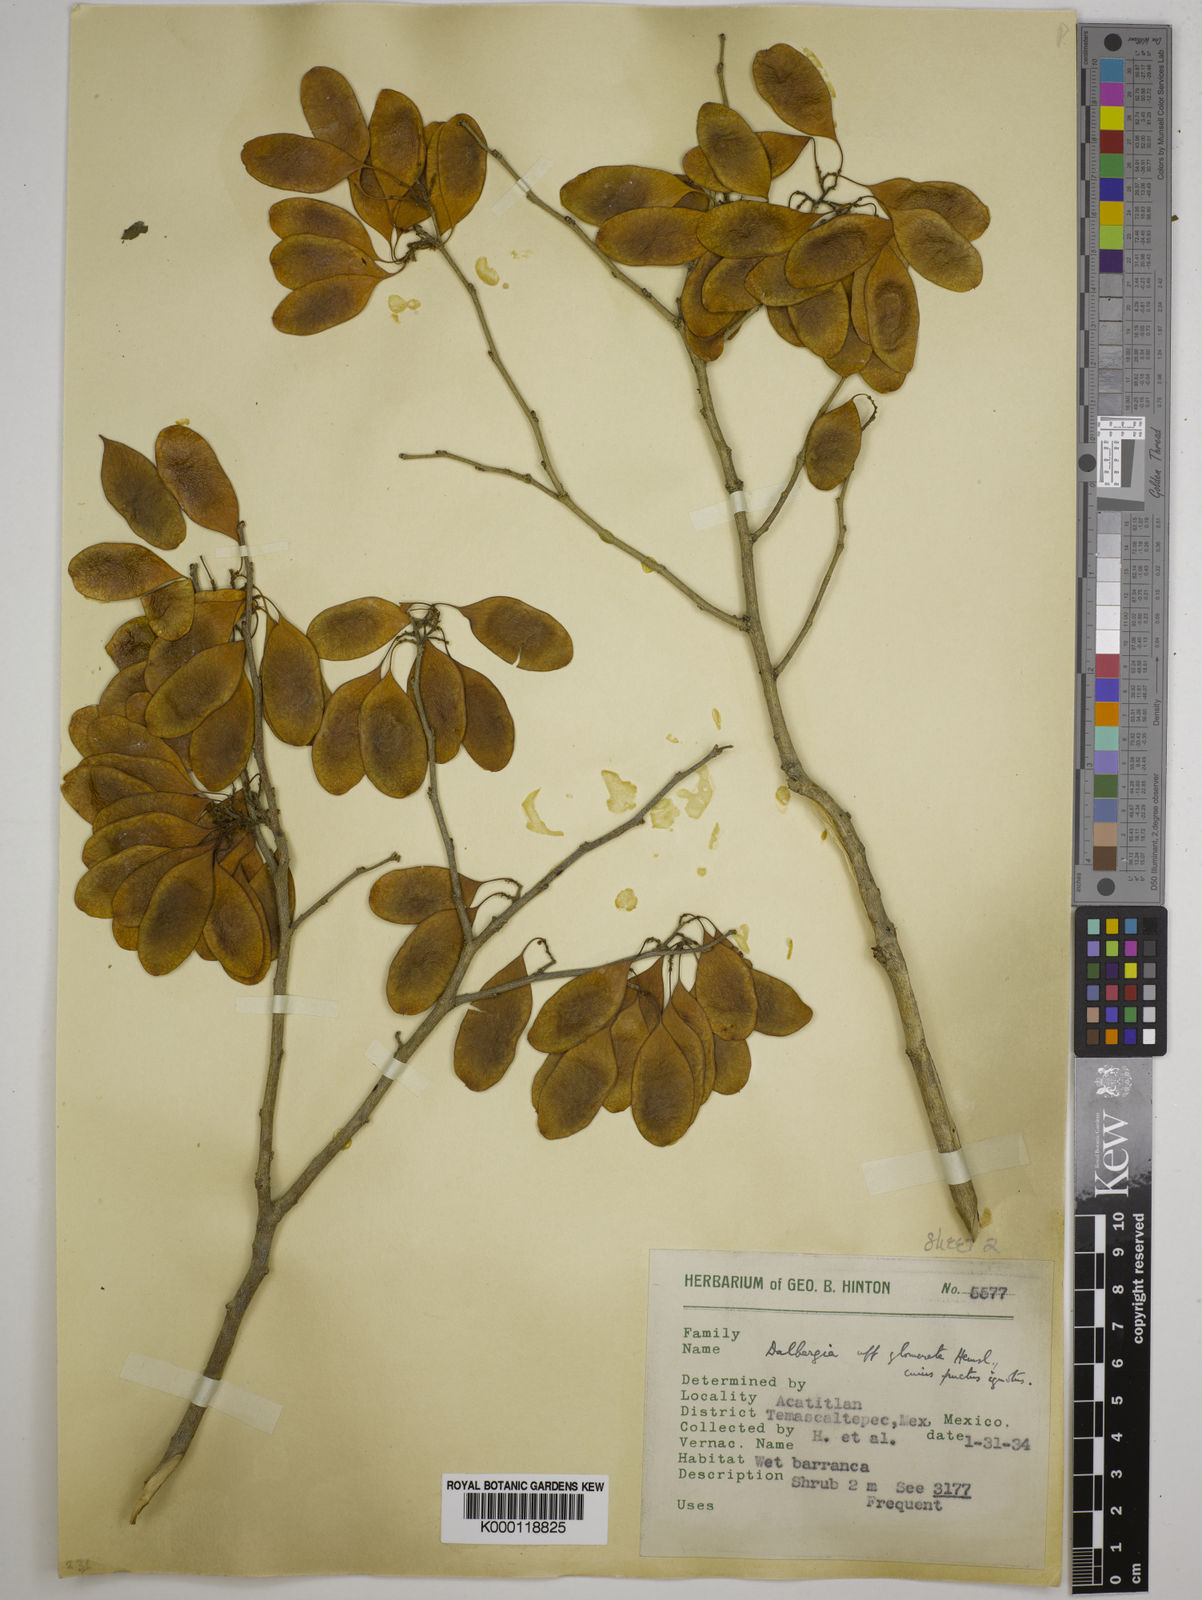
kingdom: Plantae
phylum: Tracheophyta
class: Magnoliopsida
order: Fabales
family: Fabaceae
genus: Dalbergia
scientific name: Dalbergia glomerata
